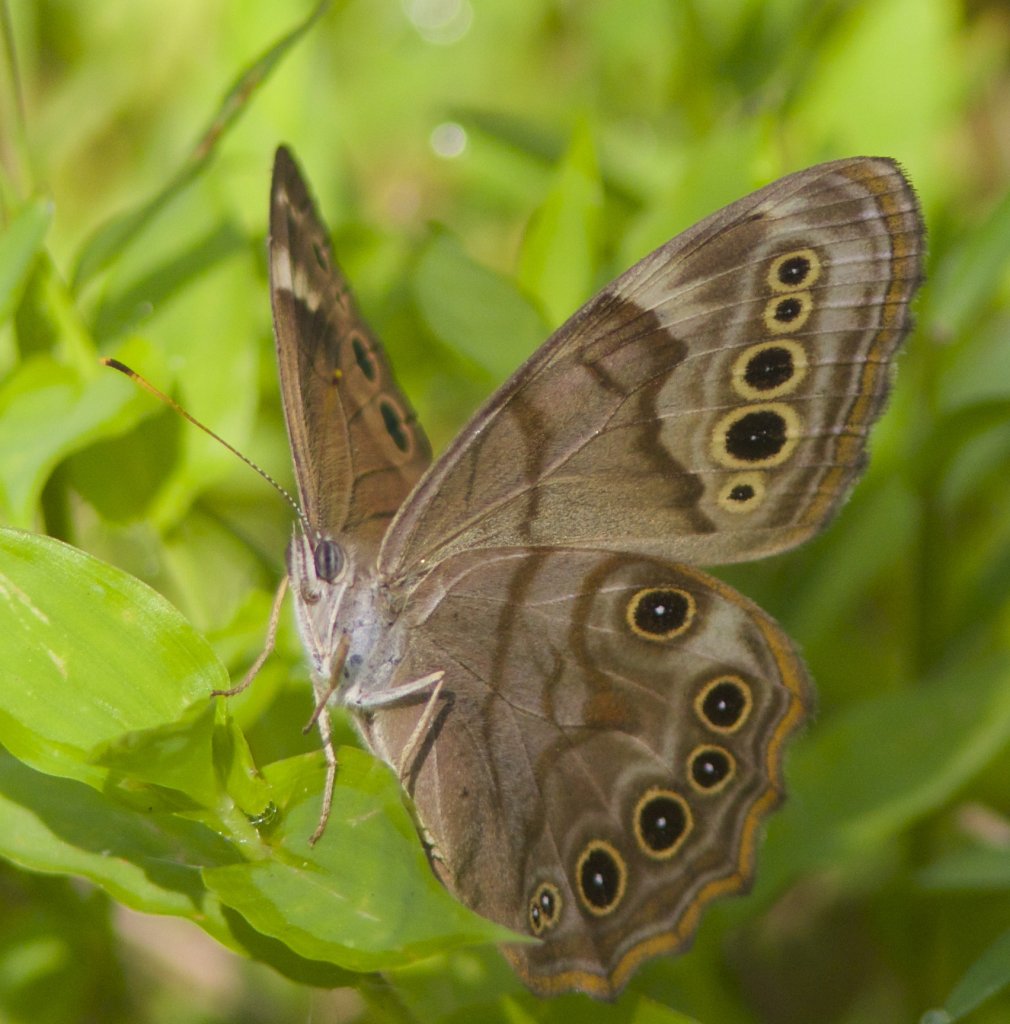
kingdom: Animalia
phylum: Arthropoda
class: Insecta
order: Lepidoptera
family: Nymphalidae
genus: Lethe
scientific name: Lethe anthedon
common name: Northern Pearly-Eye
